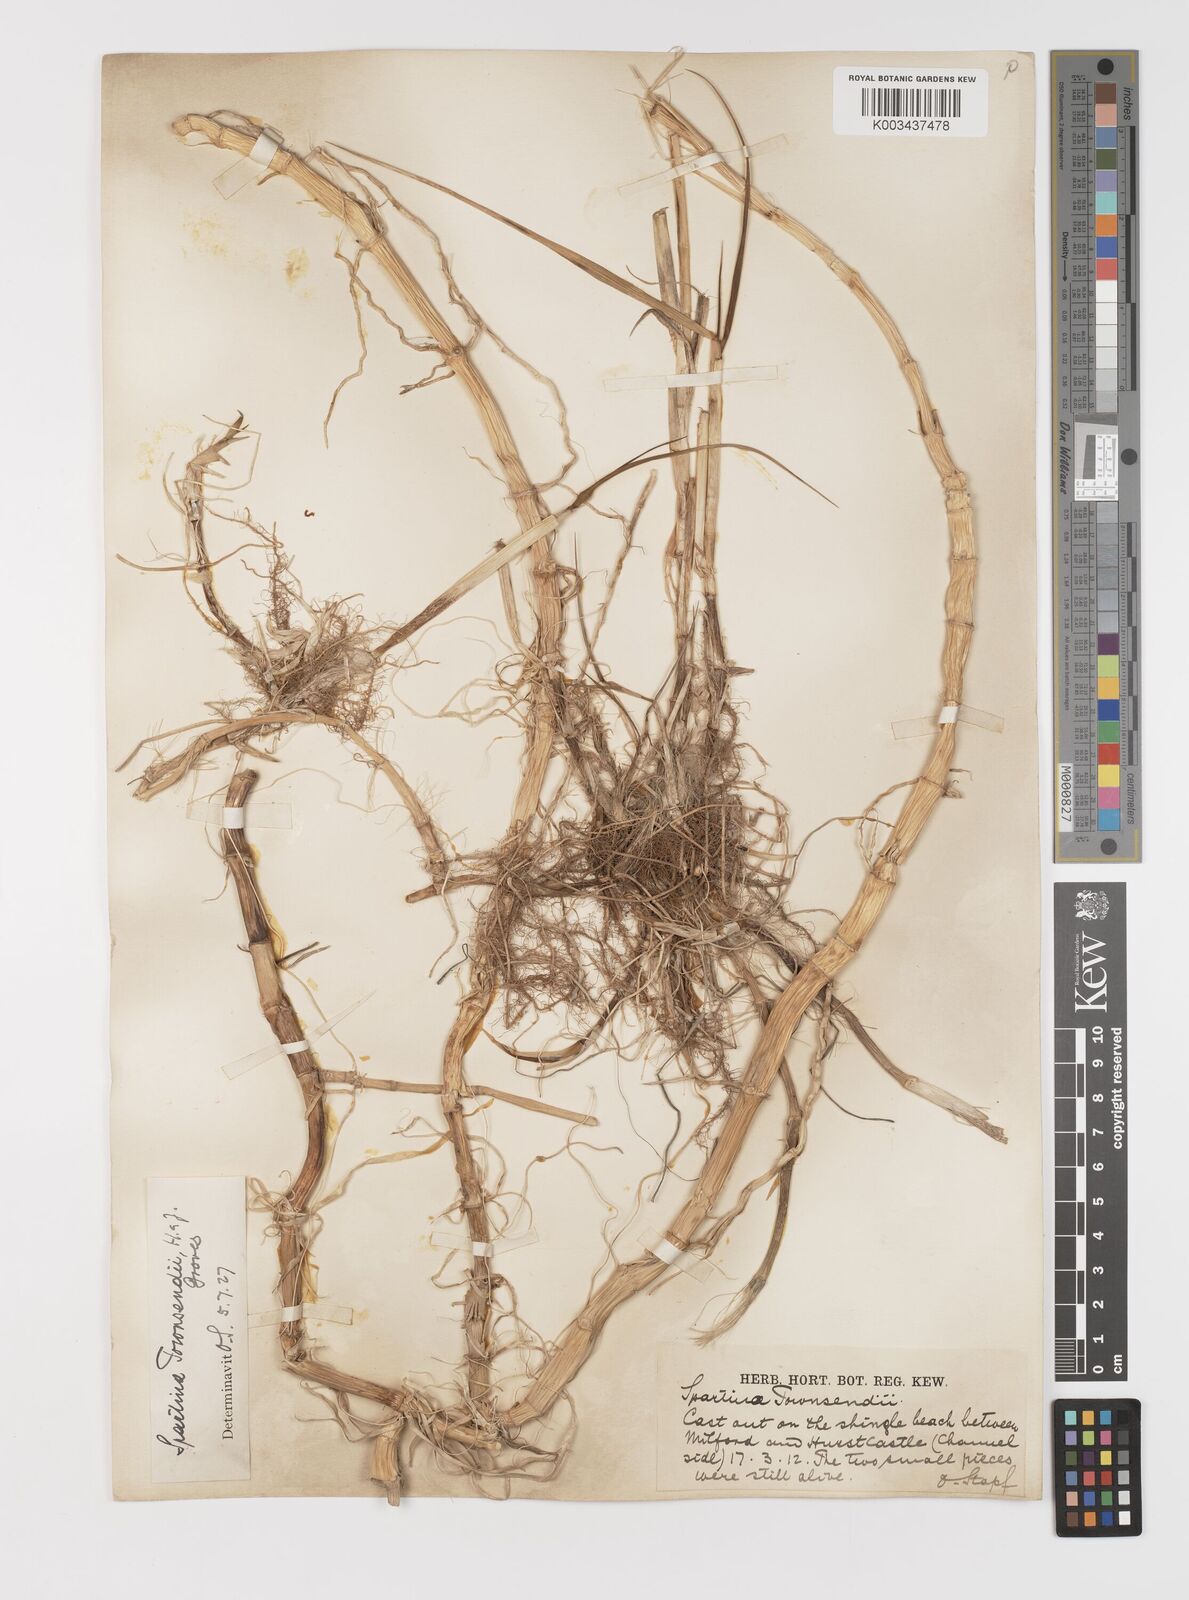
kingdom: Plantae
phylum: Tracheophyta
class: Liliopsida
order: Poales
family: Poaceae
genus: Sporobolus
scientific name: Sporobolus anglicus
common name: English cordgrass
